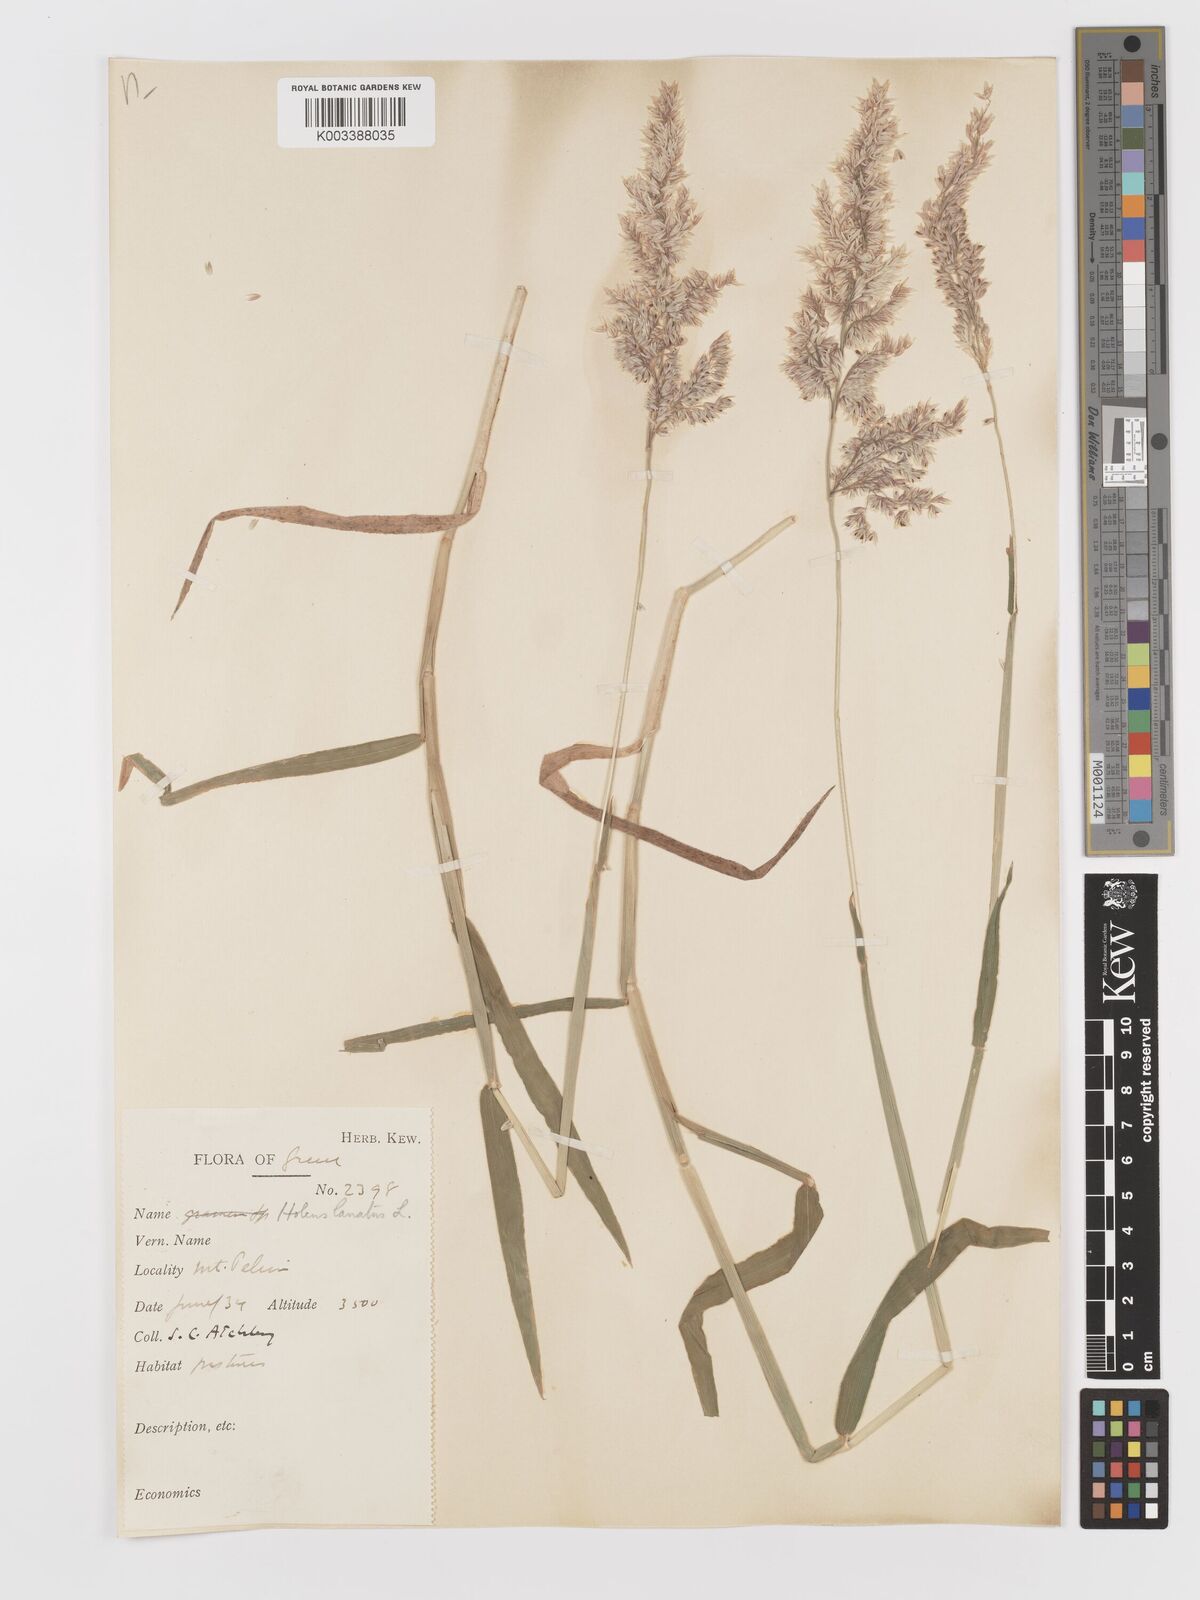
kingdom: Plantae
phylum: Tracheophyta
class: Liliopsida
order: Poales
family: Poaceae
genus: Holcus
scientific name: Holcus lanatus
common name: Yorkshire-fog
